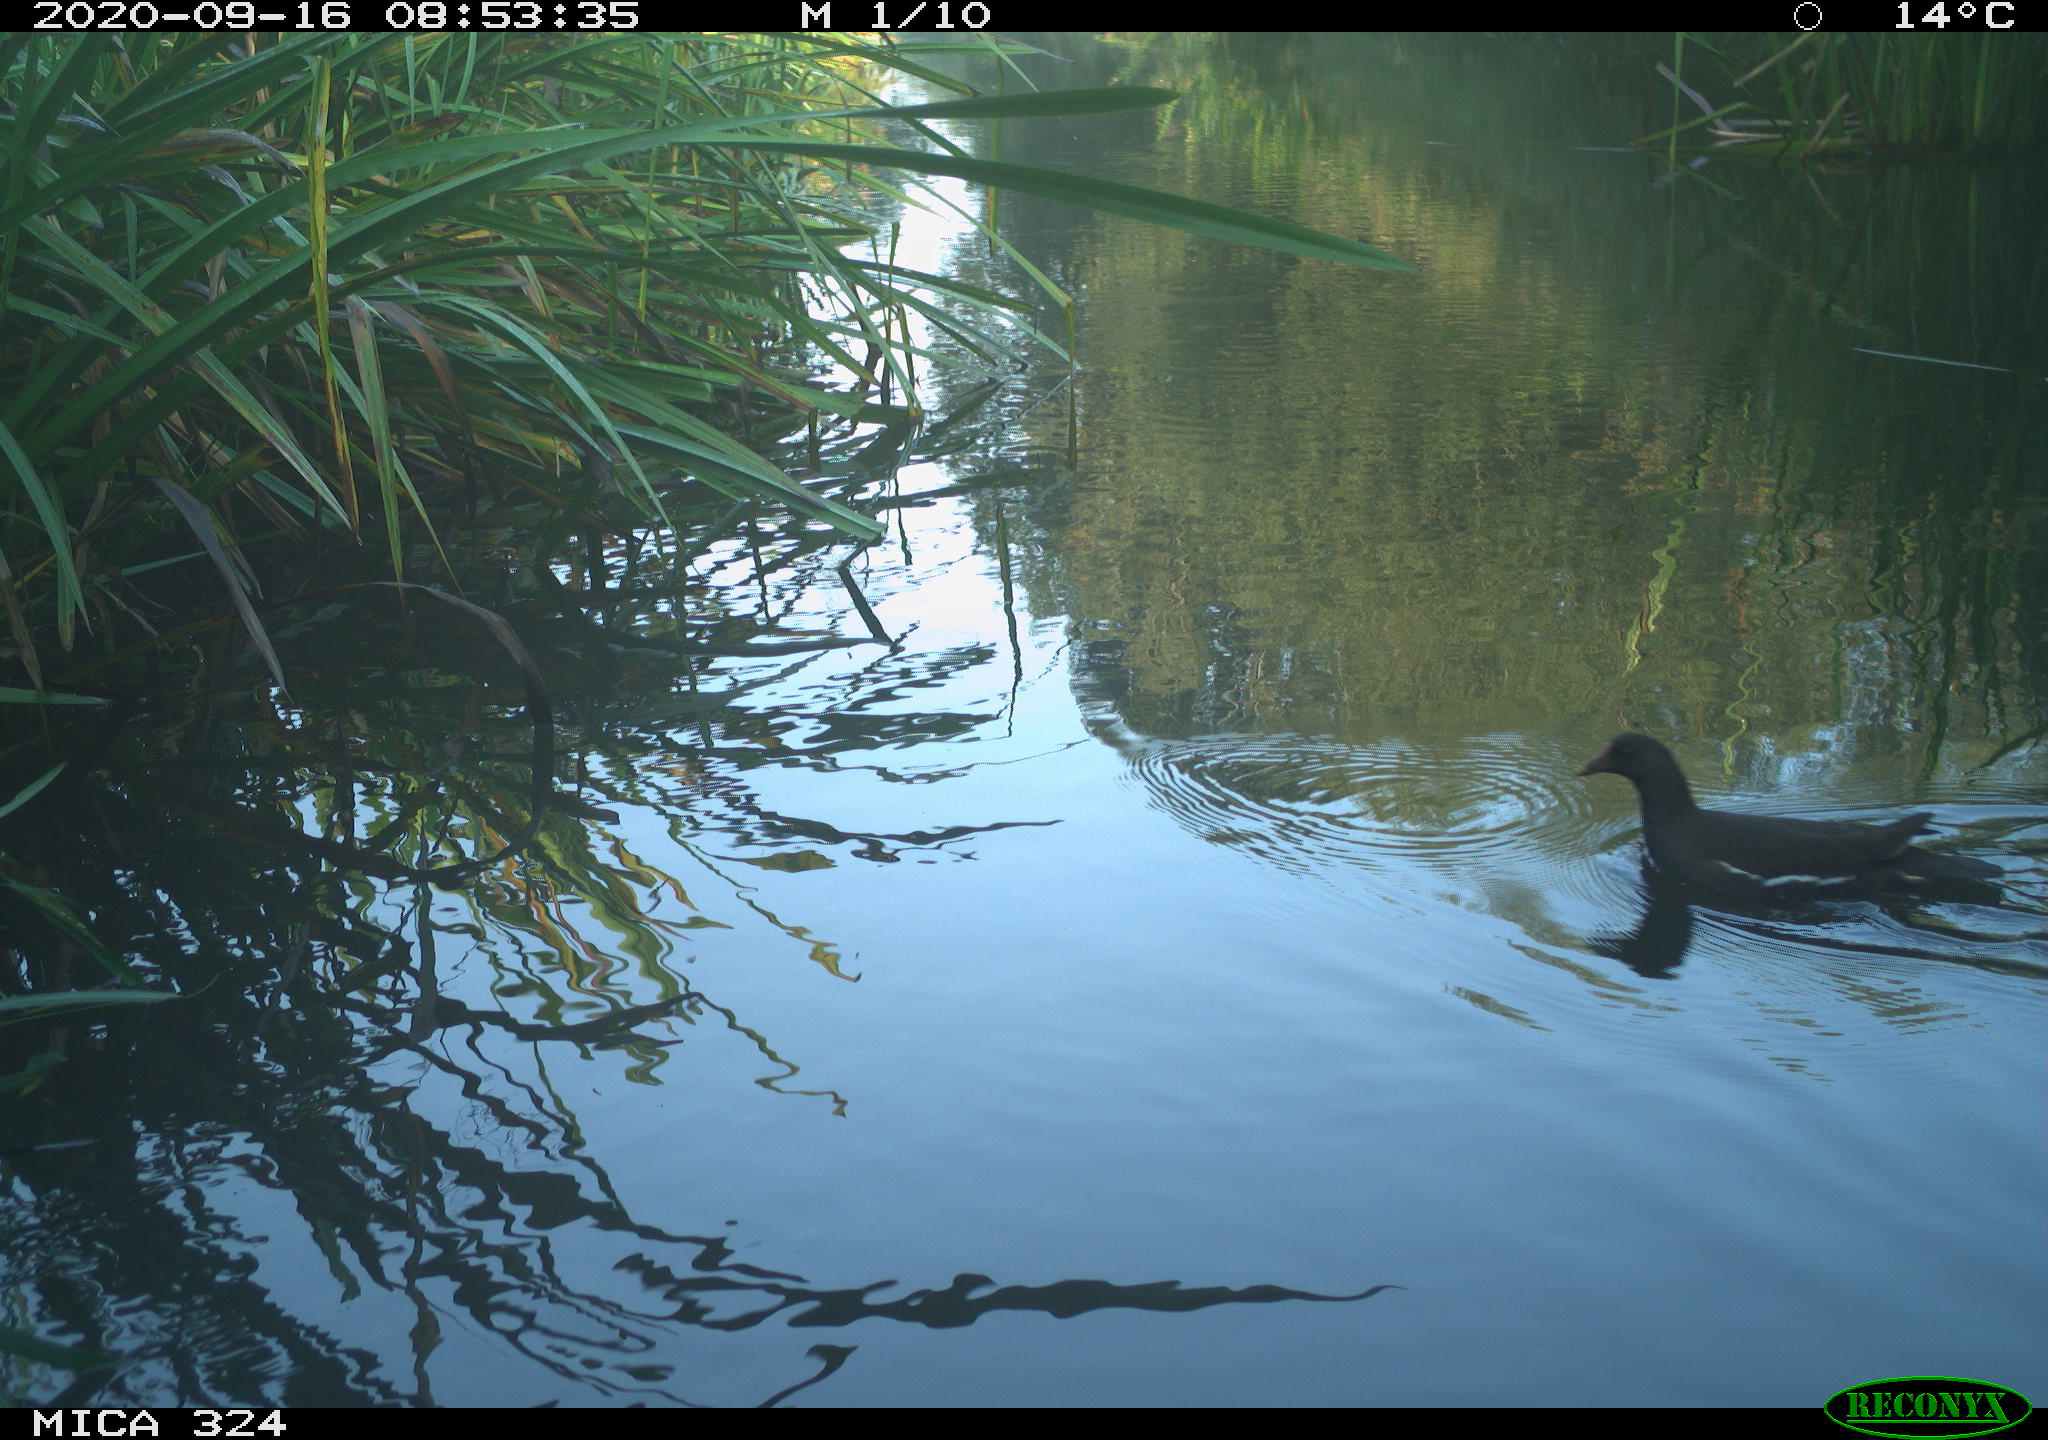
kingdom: Animalia
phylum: Chordata
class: Aves
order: Gruiformes
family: Rallidae
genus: Gallinula
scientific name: Gallinula chloropus
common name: Common moorhen
